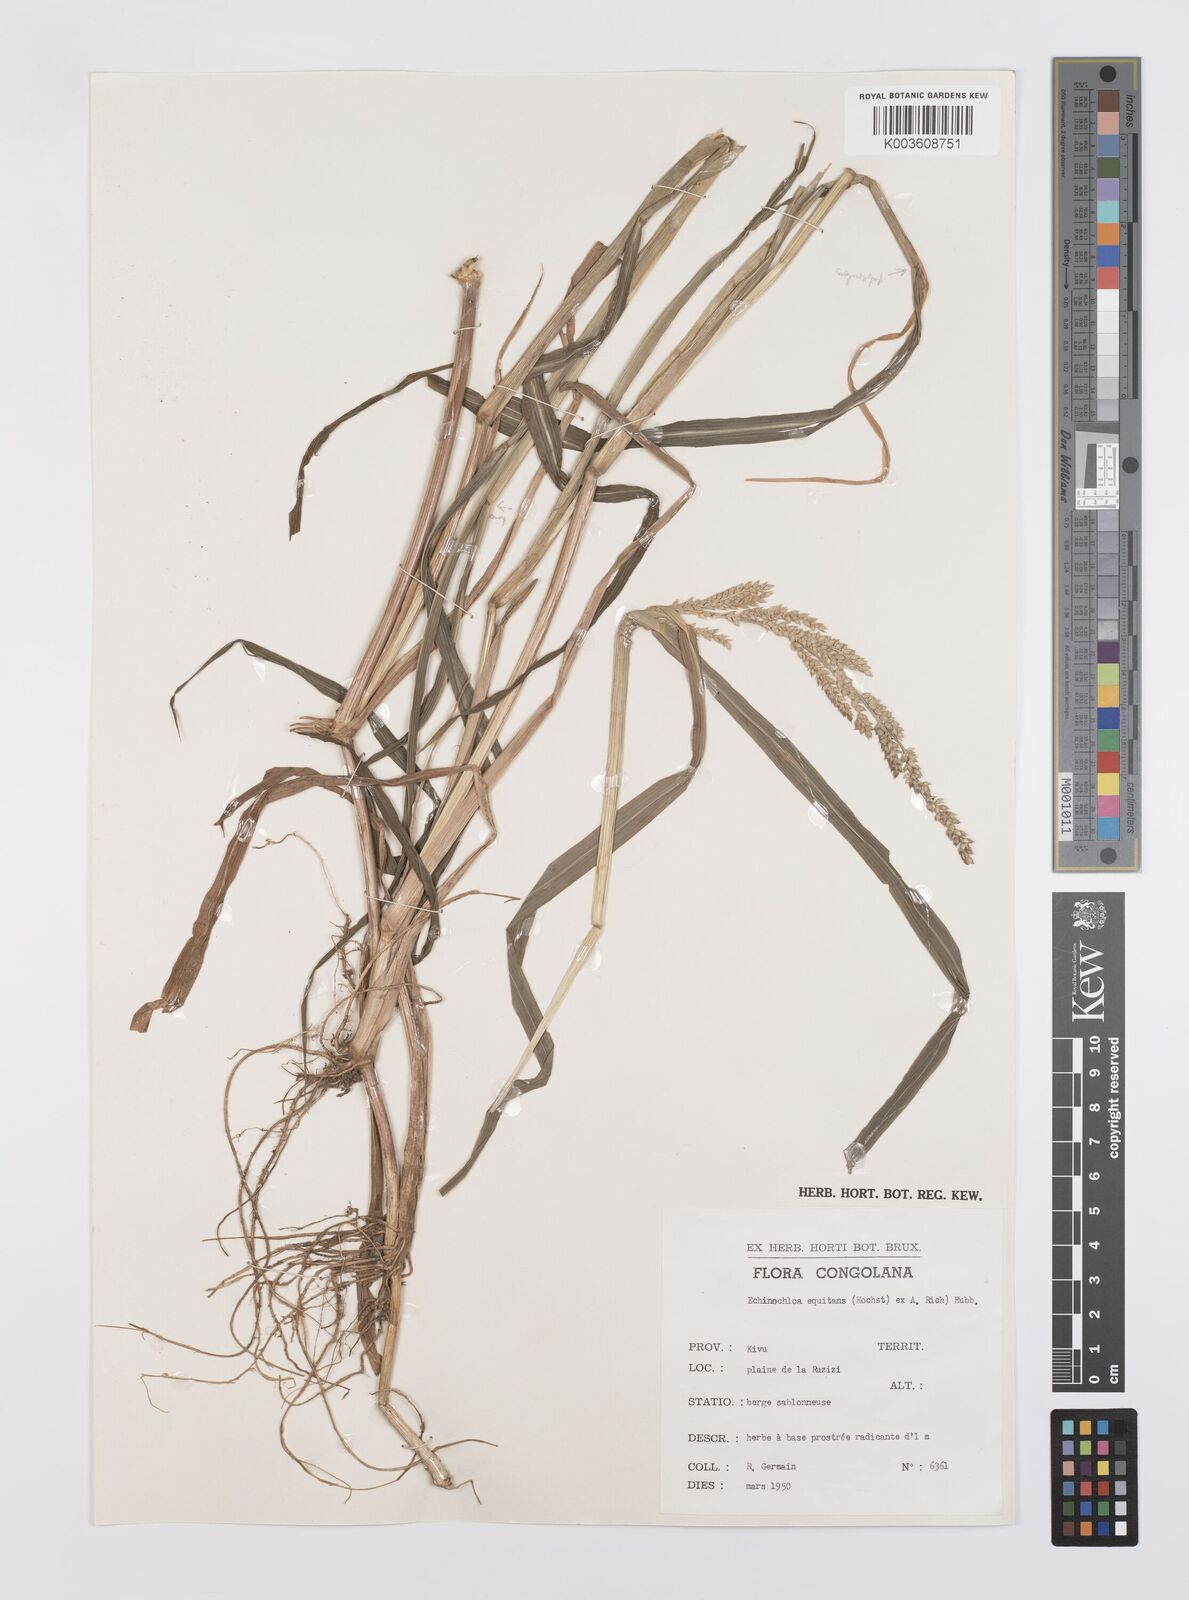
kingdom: Plantae
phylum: Tracheophyta
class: Liliopsida
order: Poales
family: Poaceae
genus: Echinochloa
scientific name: Echinochloa pyramidalis
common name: Antelope grass
